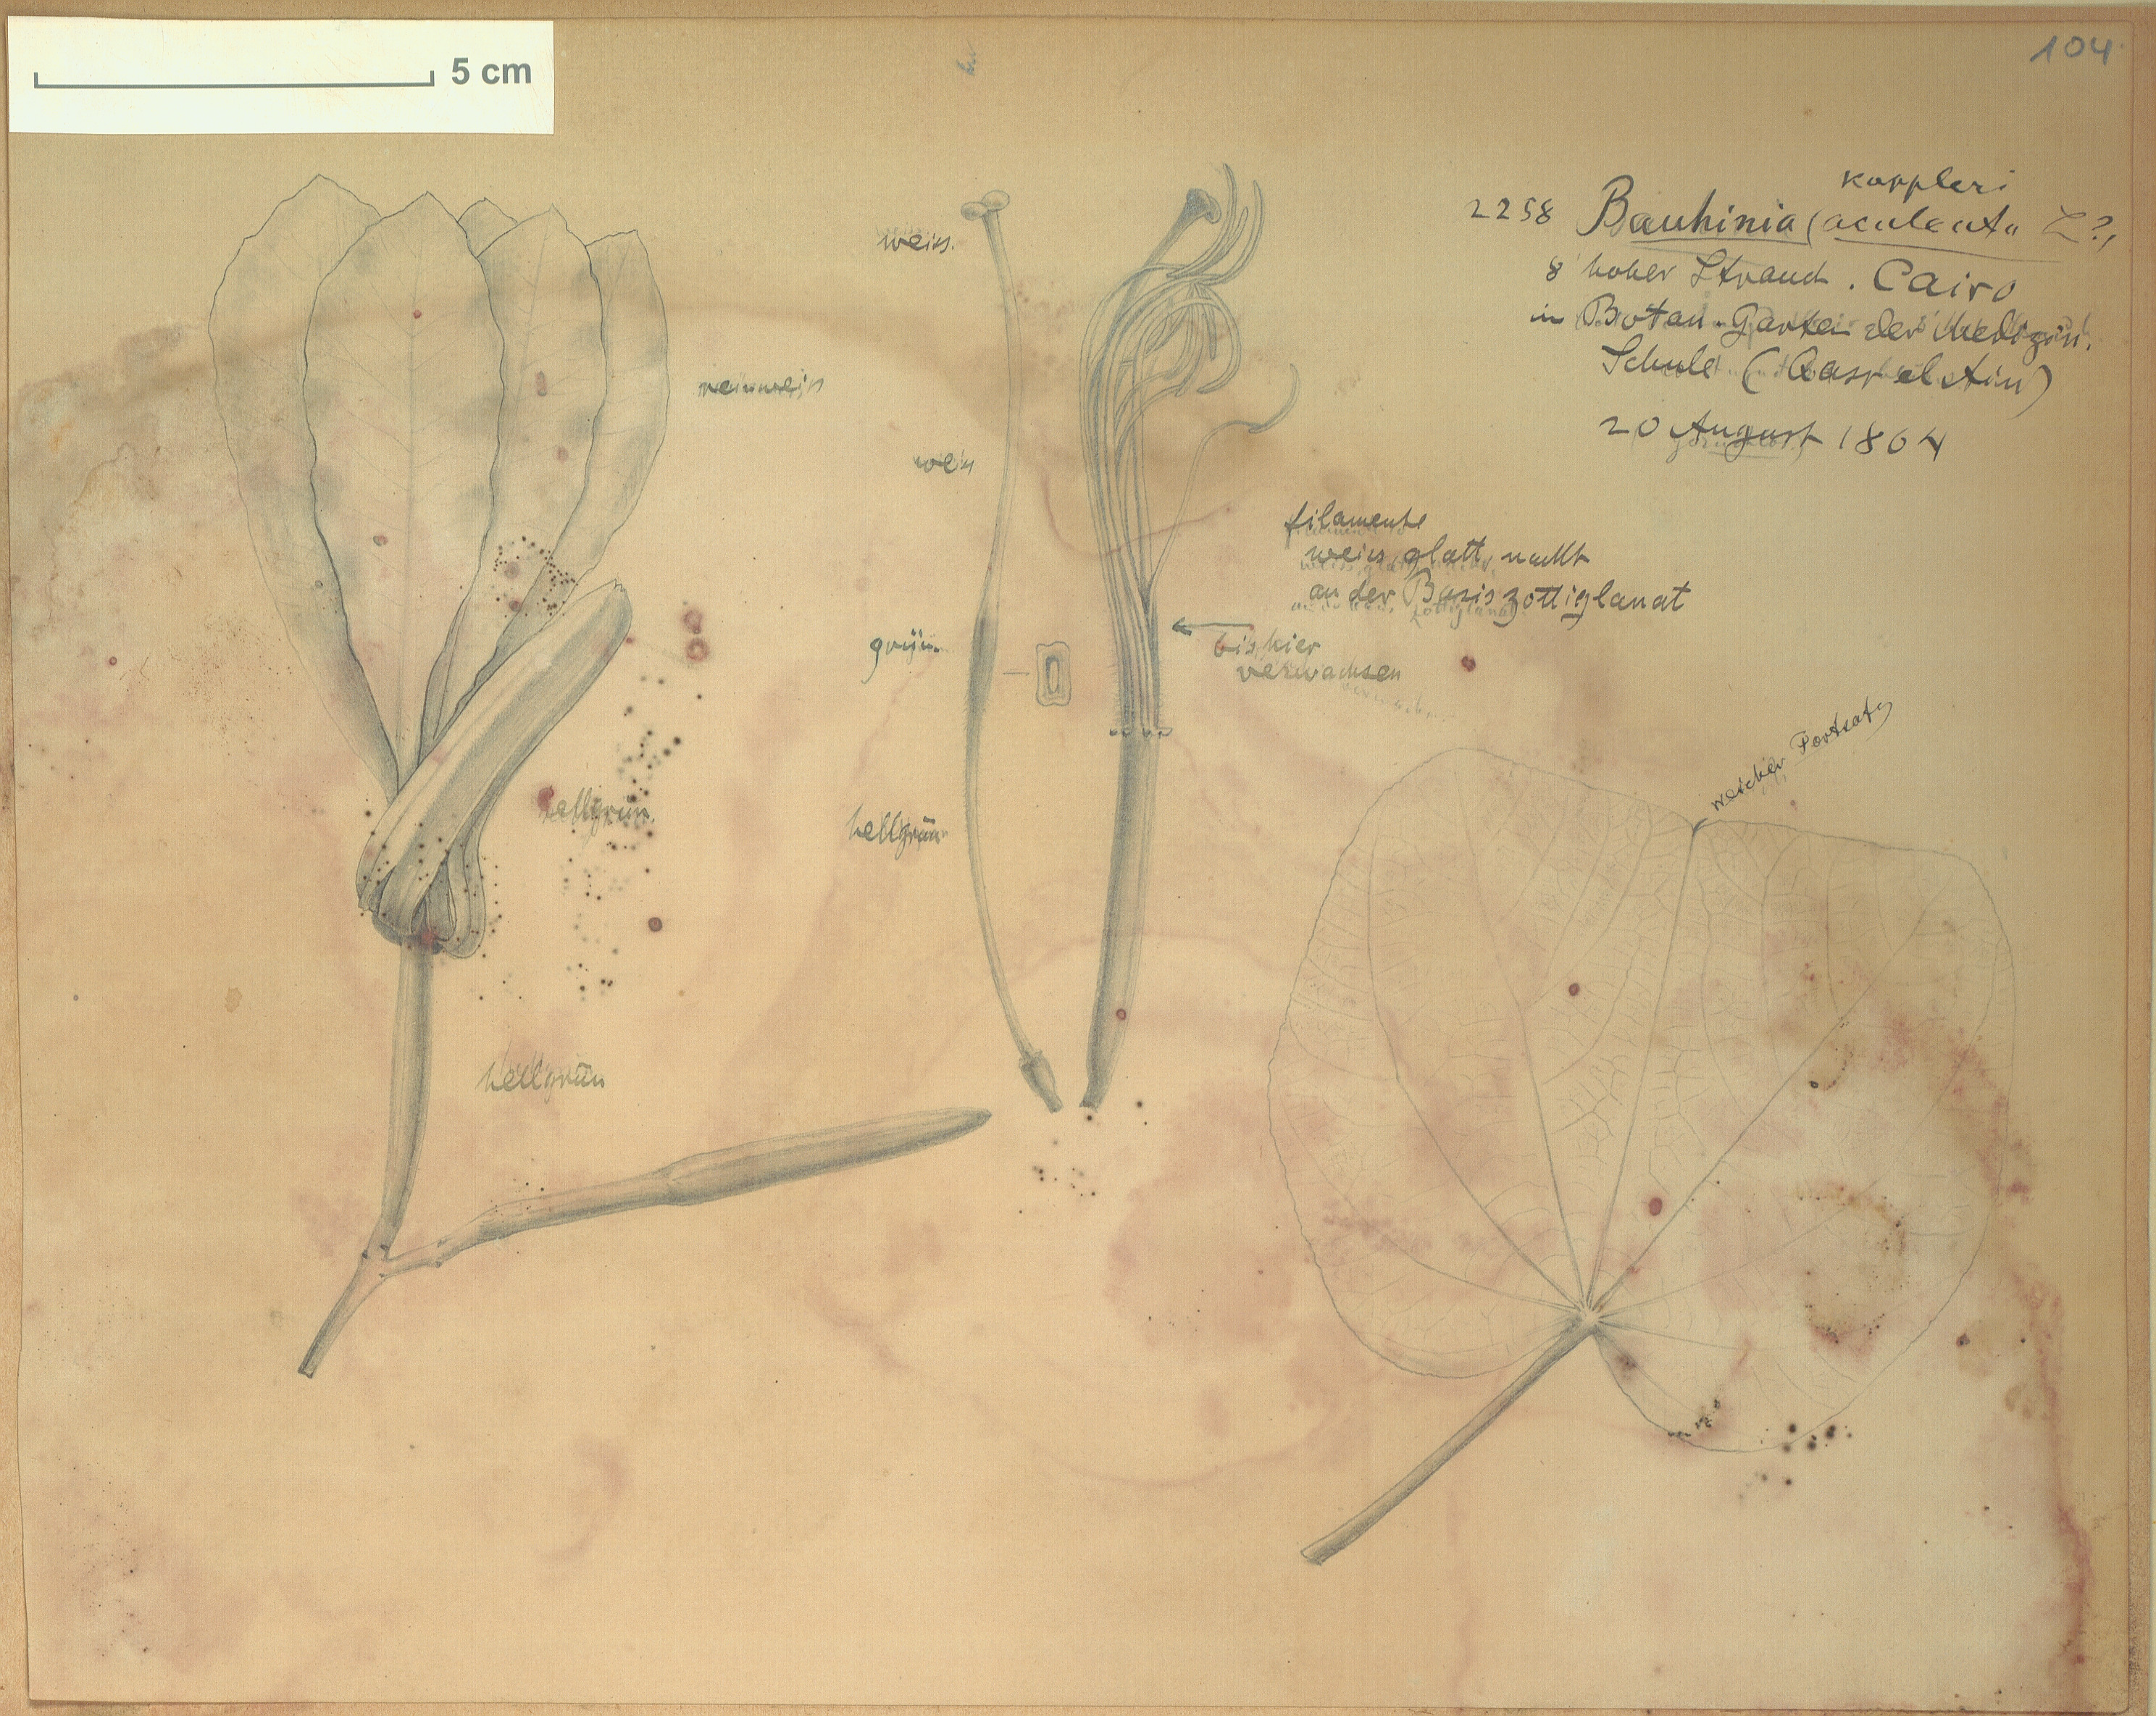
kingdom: Plantae
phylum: Tracheophyta
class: Magnoliopsida
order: Fabales
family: Fabaceae
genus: Bauhinia
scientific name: Bauhinia aculeata
